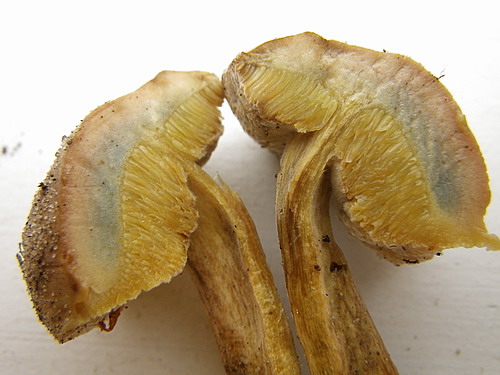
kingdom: Fungi
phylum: Basidiomycota
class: Agaricomycetes
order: Boletales
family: Boletaceae
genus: Hortiboletus
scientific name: Hortiboletus bubalinus
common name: aurora-rørhat
